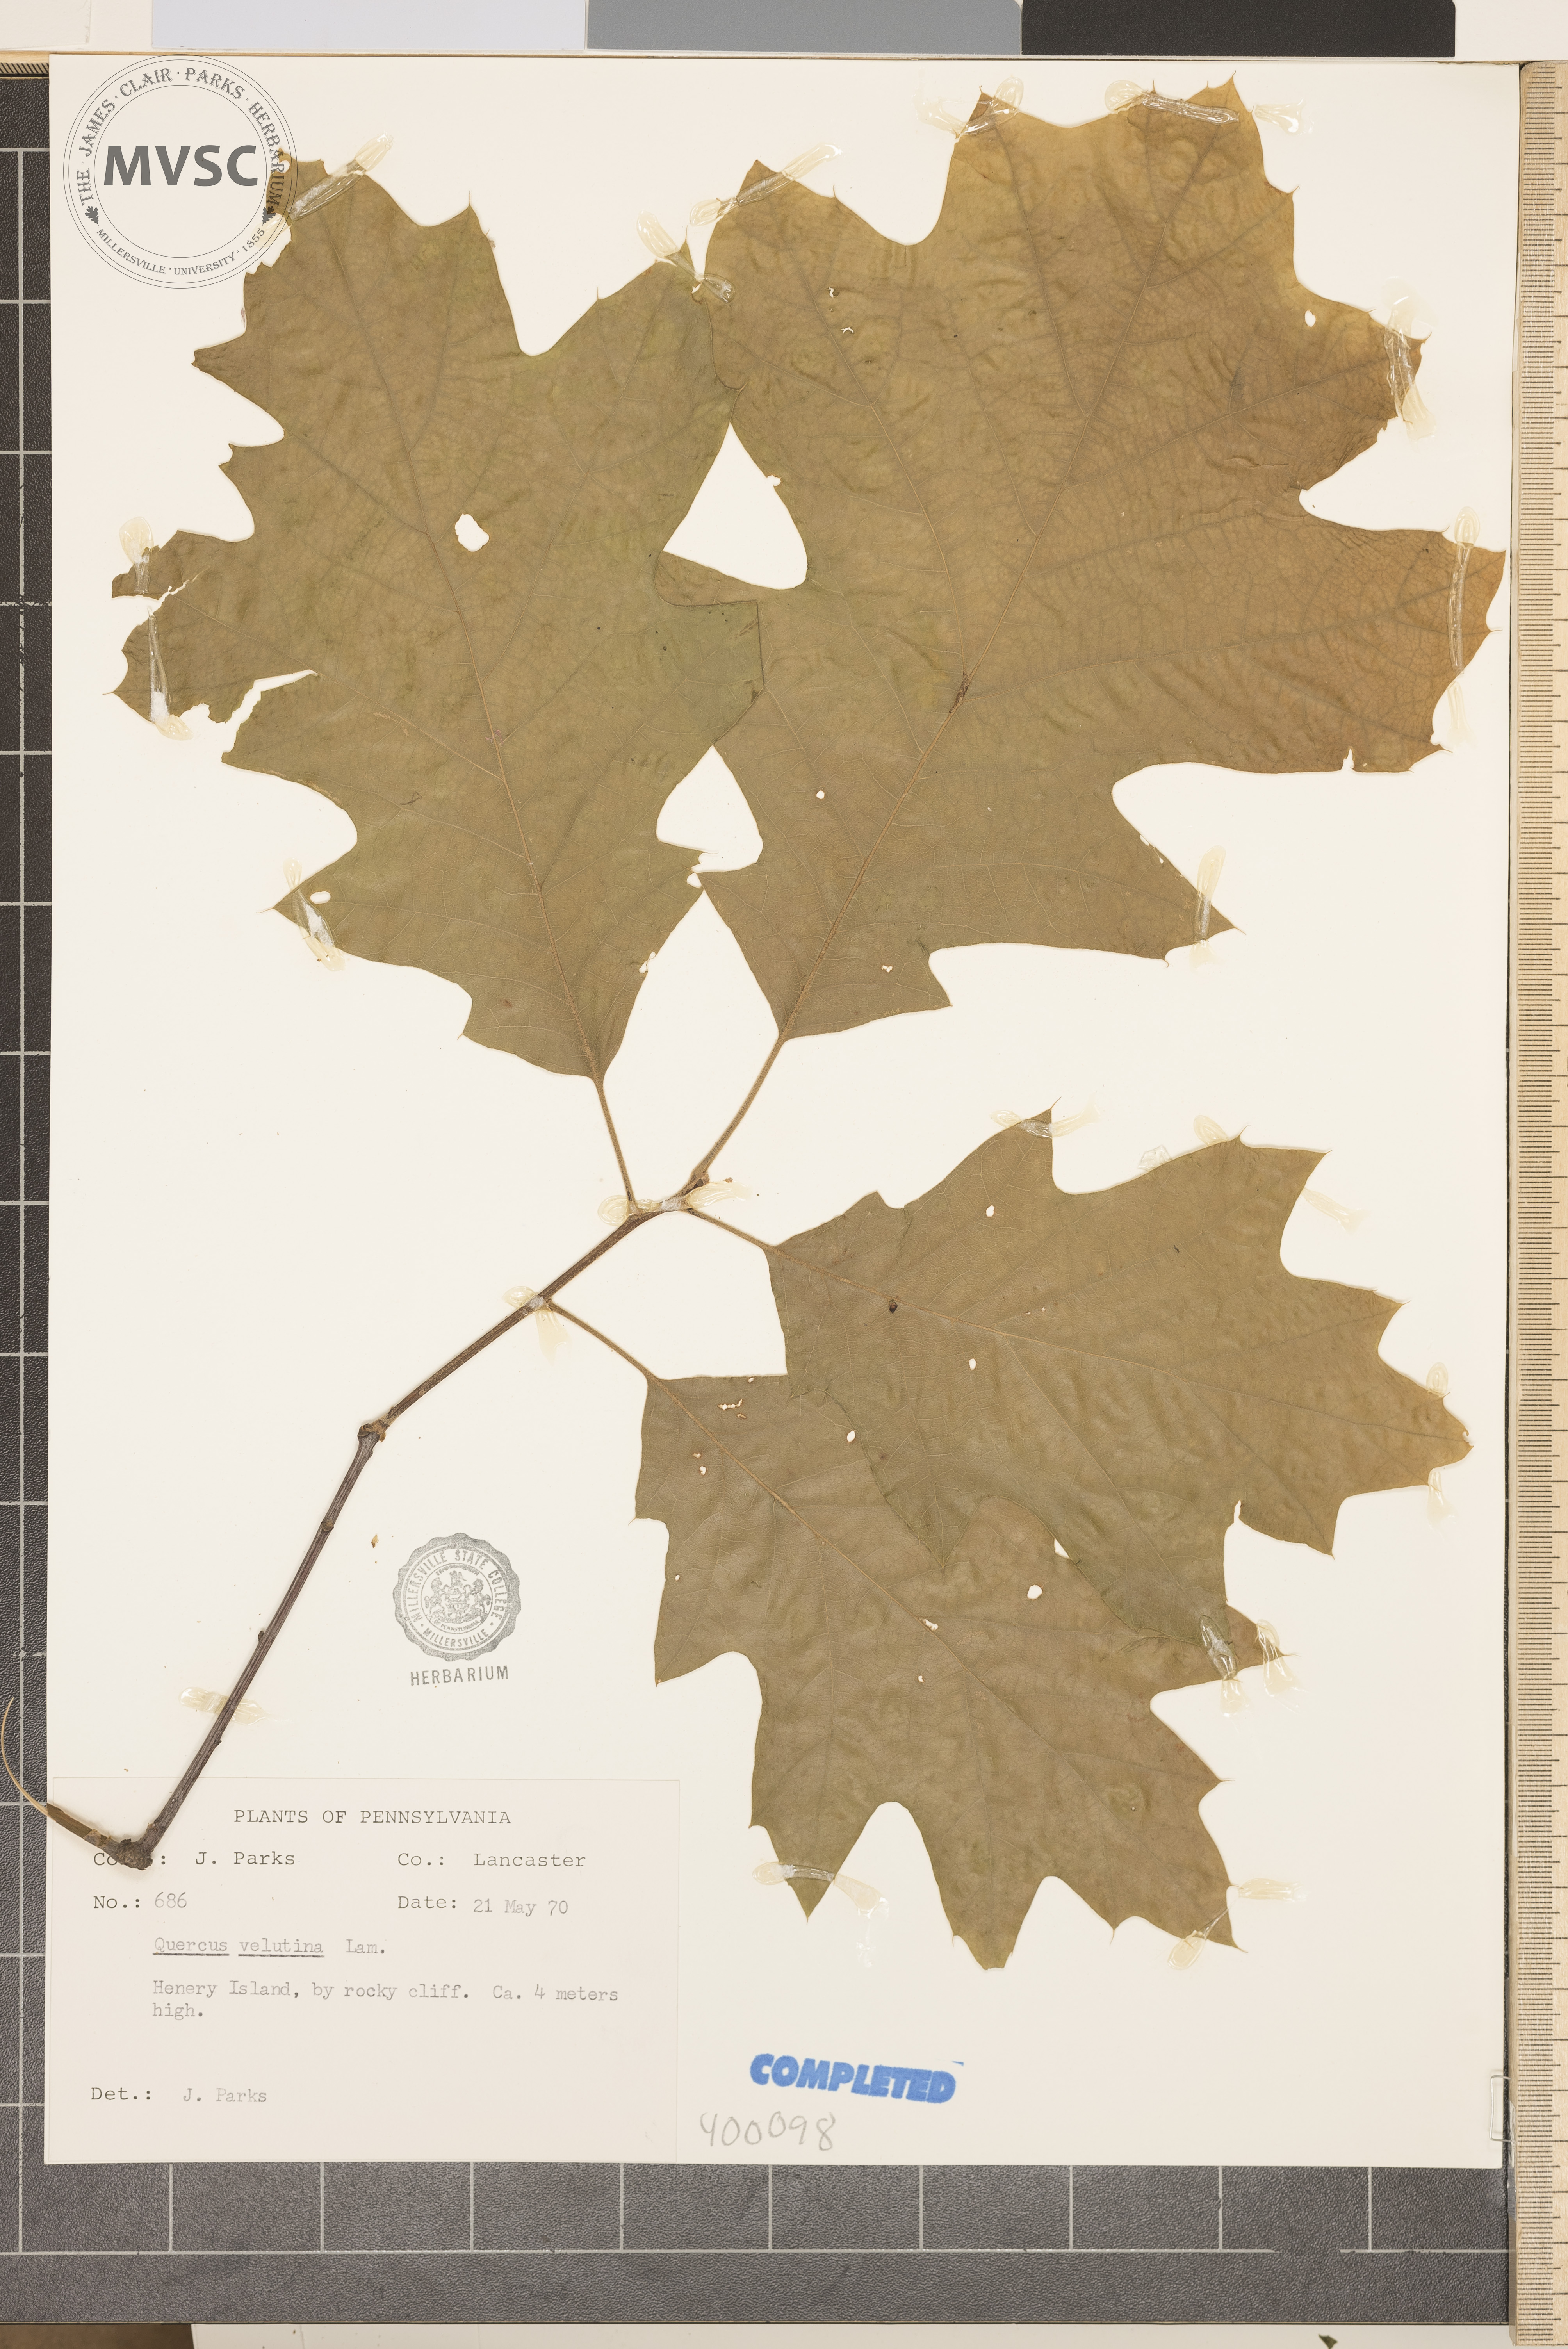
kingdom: Plantae
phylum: Tracheophyta
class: Magnoliopsida
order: Fagales
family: Fagaceae
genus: Quercus
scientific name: Quercus velutina
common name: black oak
